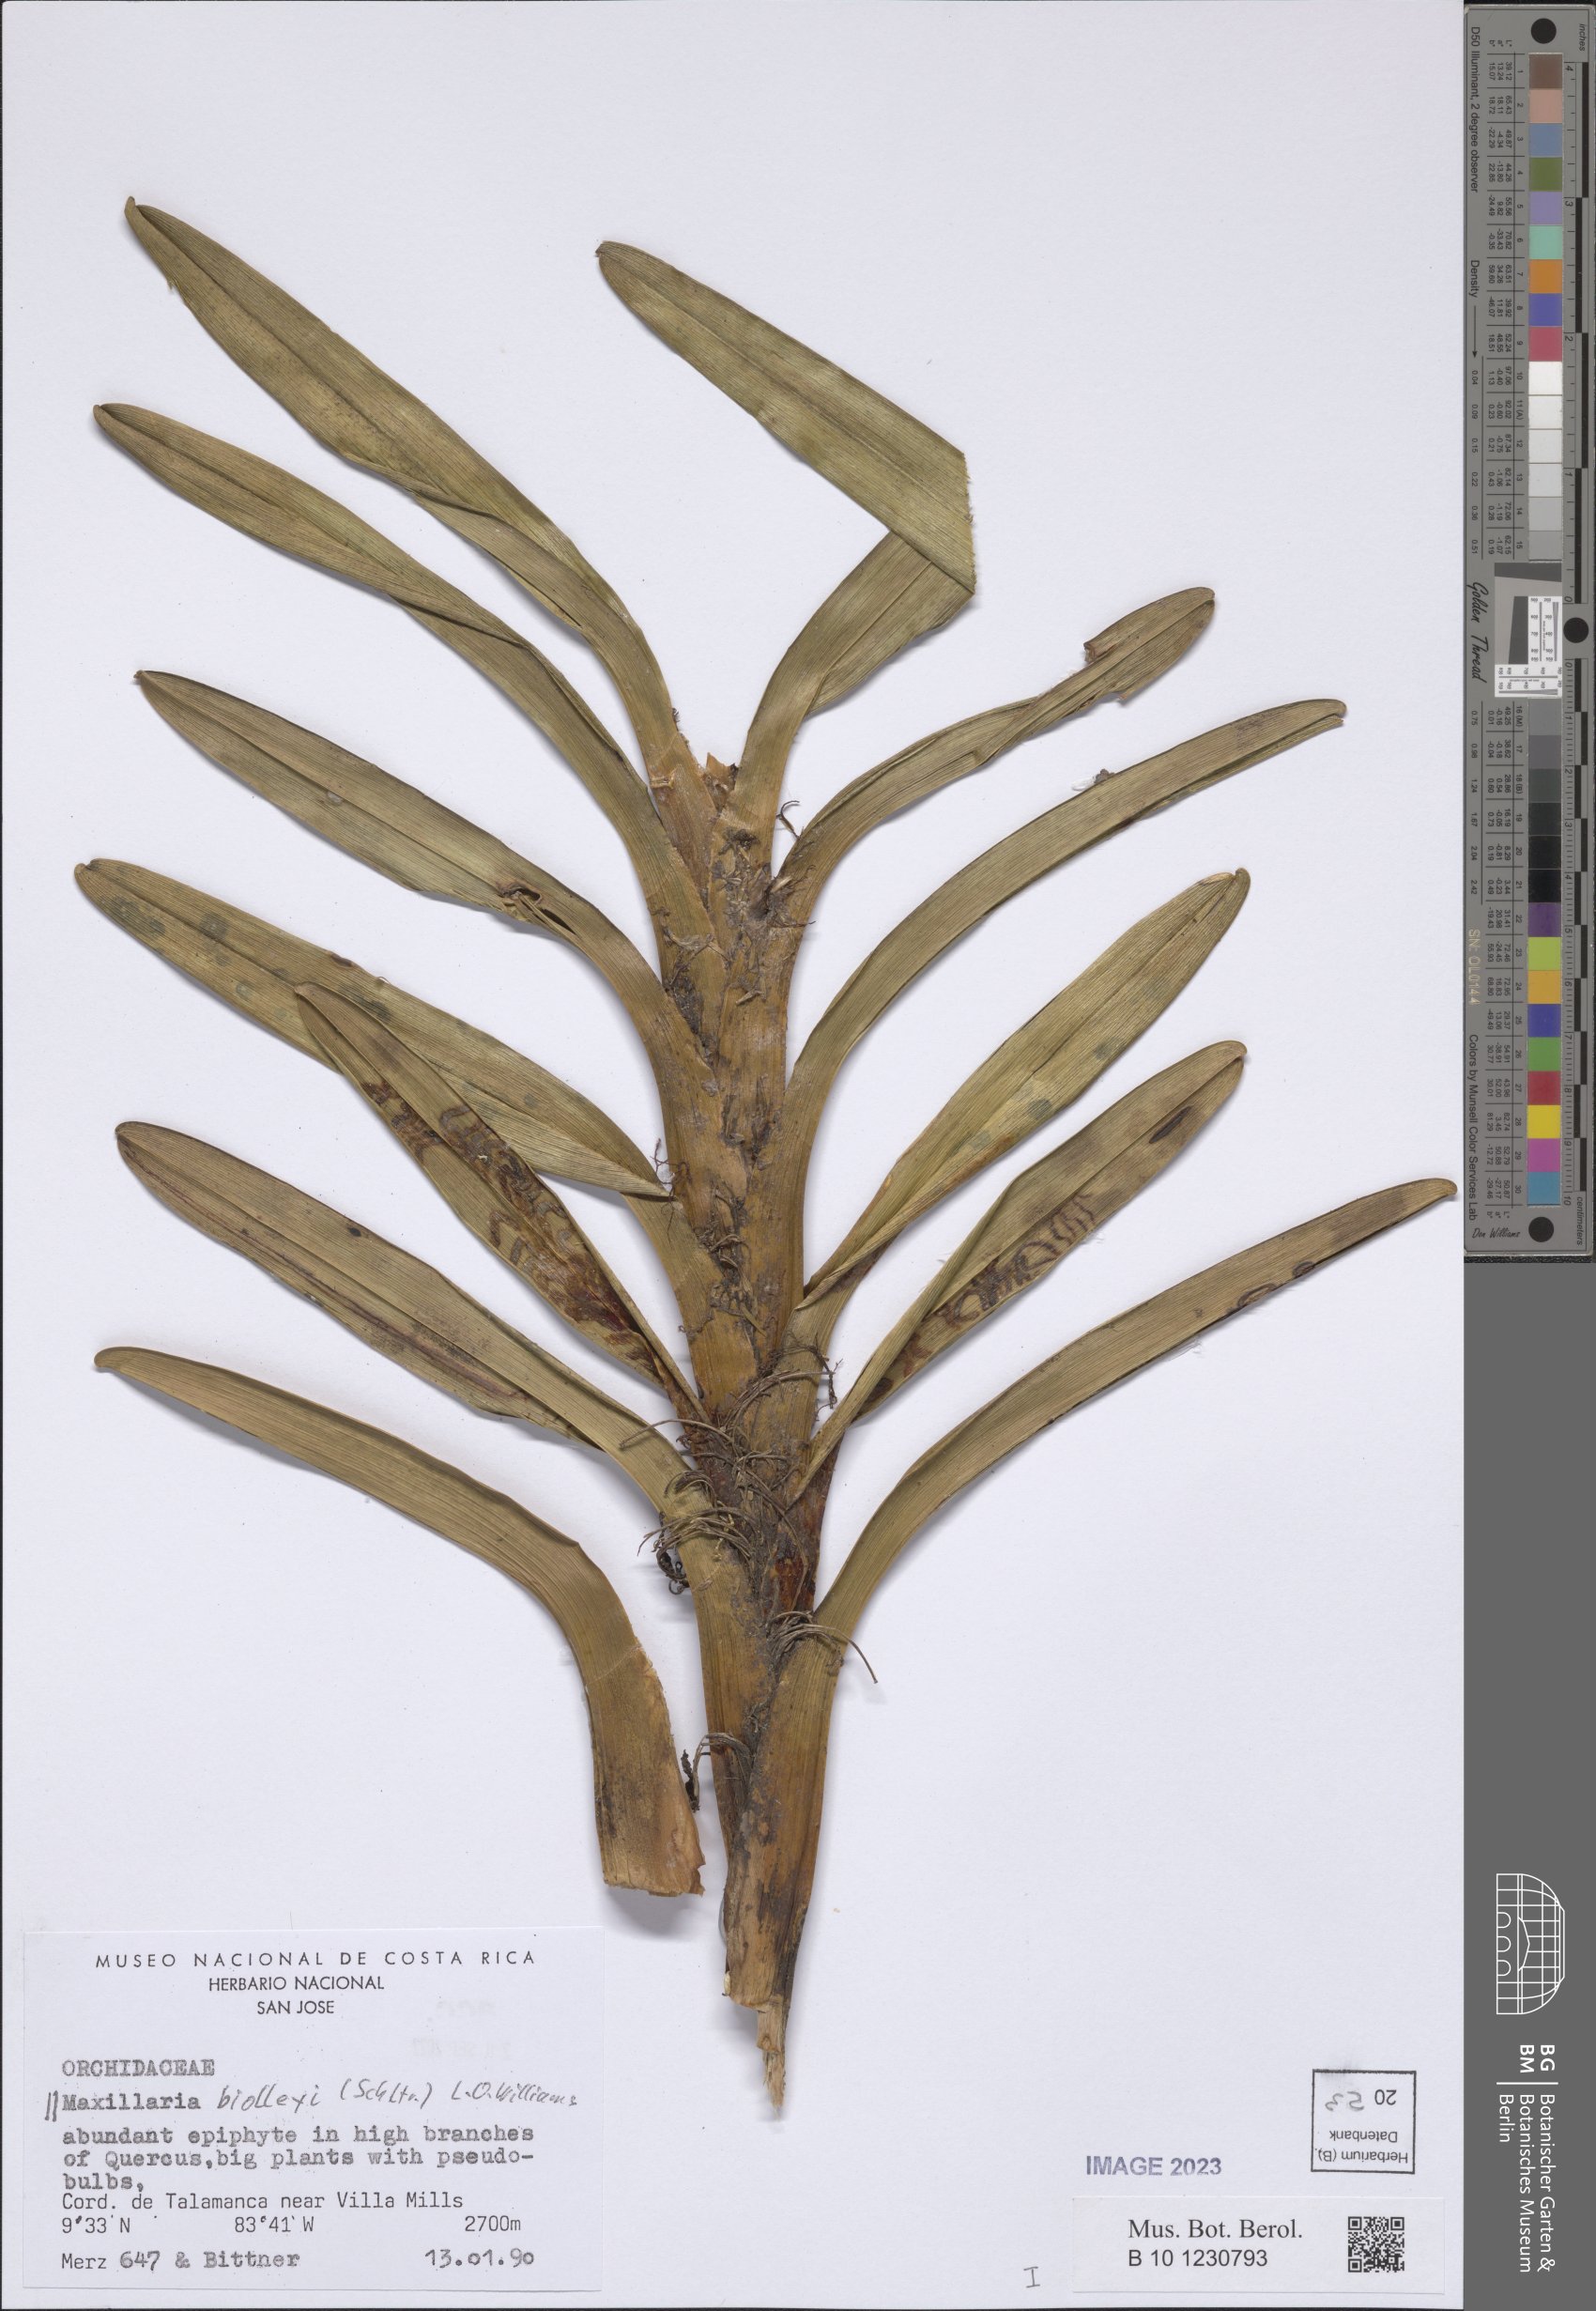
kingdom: Plantae
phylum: Tracheophyta
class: Liliopsida
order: Asparagales
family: Orchidaceae
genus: Maxillaria
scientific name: Maxillaria biolleyi
